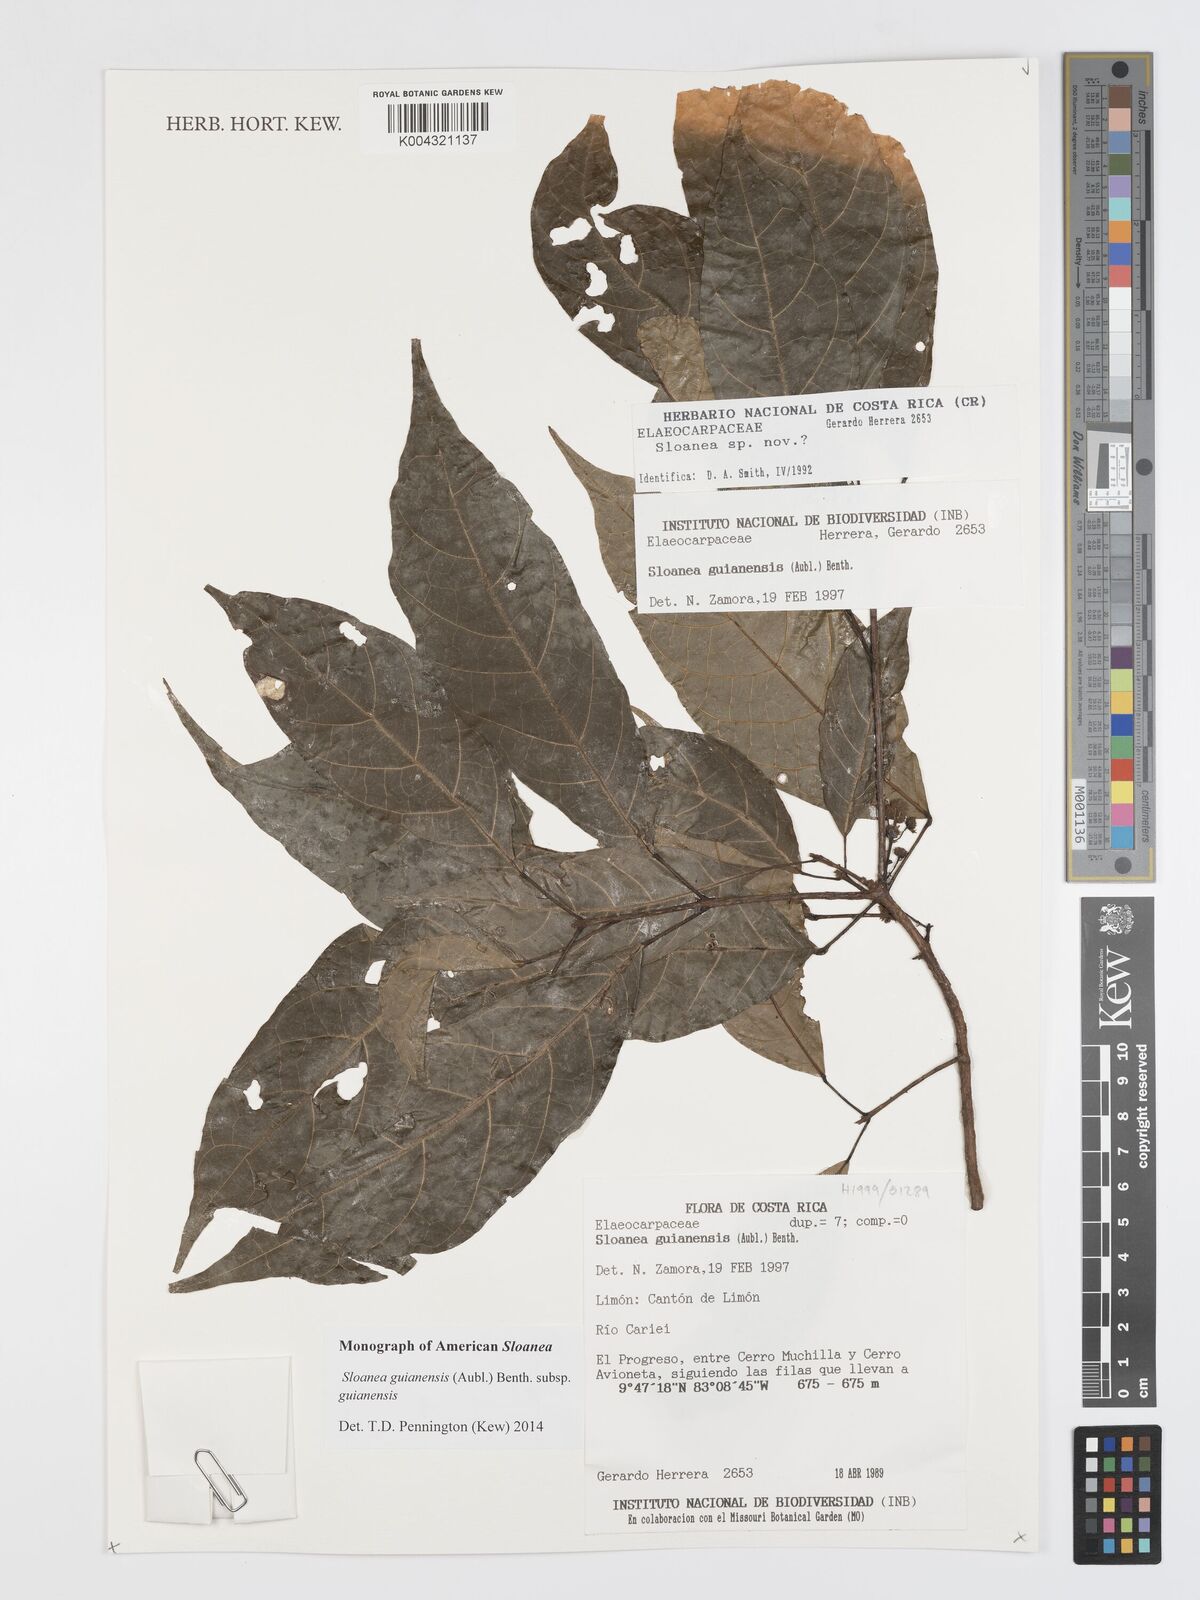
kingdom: Plantae
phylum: Tracheophyta
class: Magnoliopsida
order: Oxalidales
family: Elaeocarpaceae
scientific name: Elaeocarpaceae
